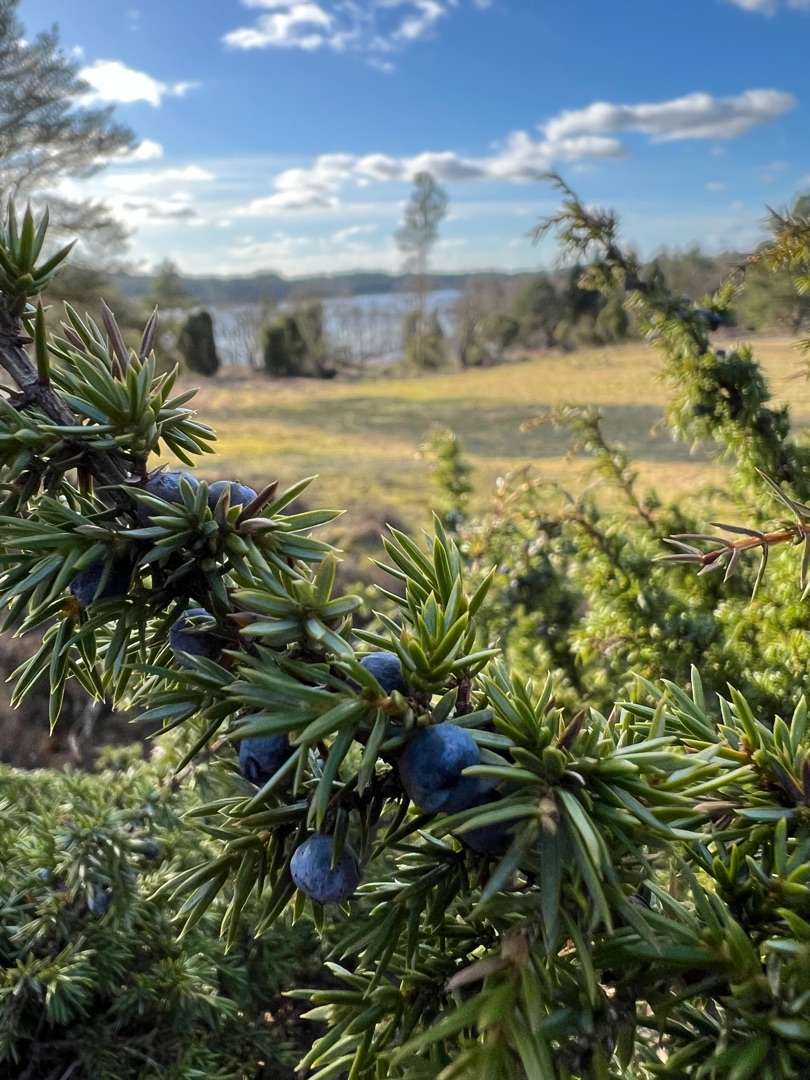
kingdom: Plantae
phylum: Tracheophyta
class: Pinopsida
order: Pinales
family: Cupressaceae
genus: Juniperus
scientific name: Juniperus communis
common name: Almindelig ene
